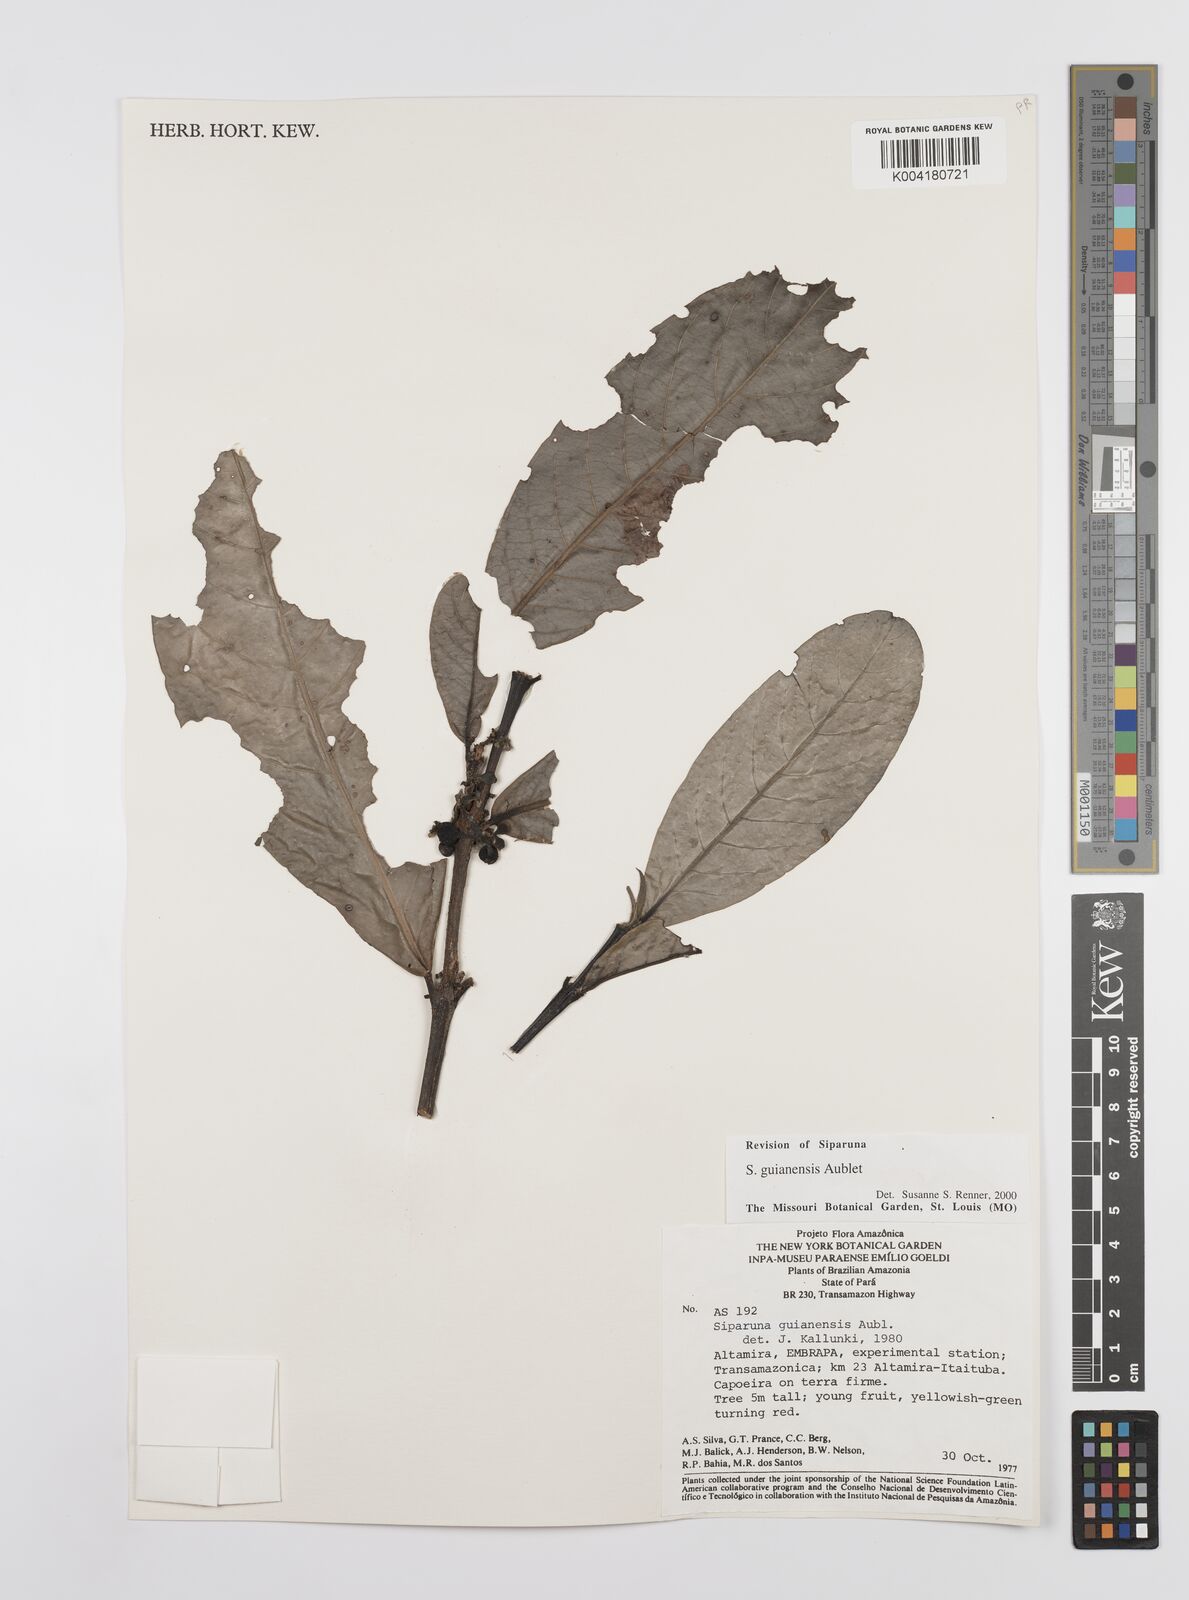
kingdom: Plantae
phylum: Tracheophyta
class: Magnoliopsida
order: Laurales
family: Siparunaceae
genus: Siparuna
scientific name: Siparuna guianensis
